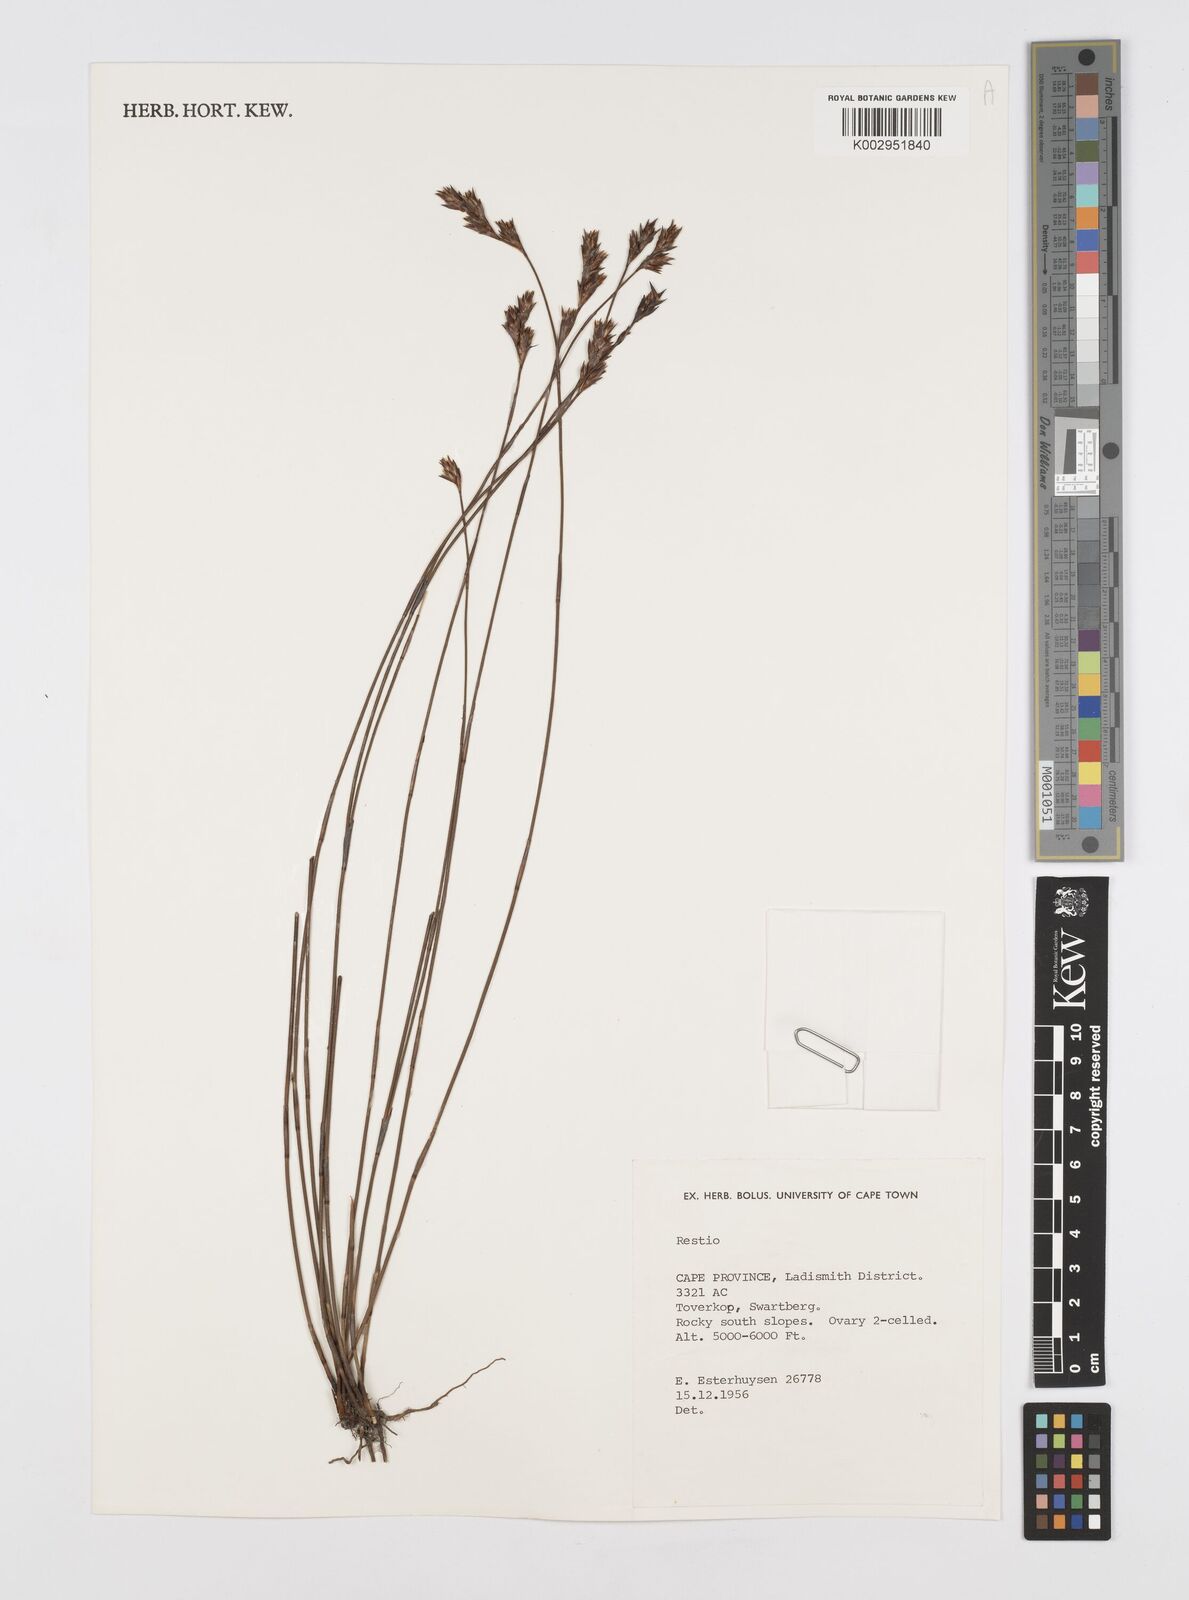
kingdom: Plantae
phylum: Tracheophyta
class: Liliopsida
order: Poales
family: Restionaceae
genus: Restio
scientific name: Restio
